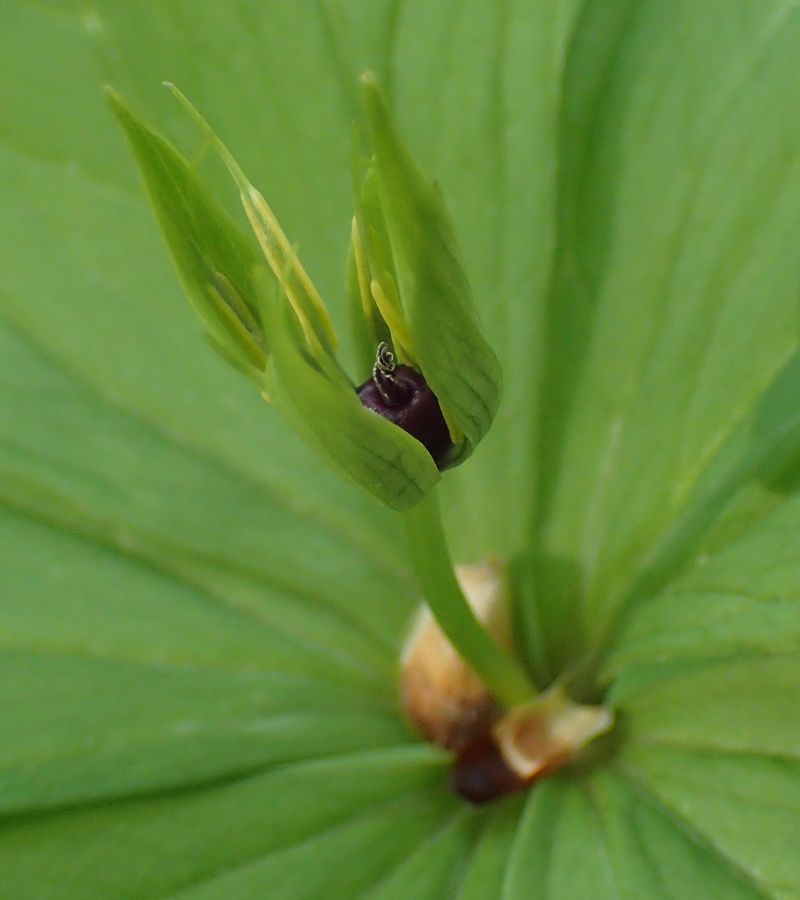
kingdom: Plantae
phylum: Tracheophyta
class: Liliopsida
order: Liliales
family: Melanthiaceae
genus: Paris
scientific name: Paris quadrifolia
